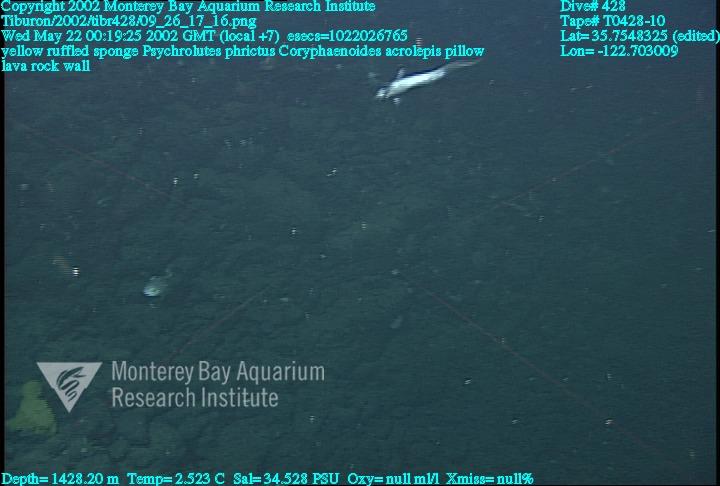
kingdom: Animalia
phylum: Porifera
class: Hexactinellida
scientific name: Hexactinellida
